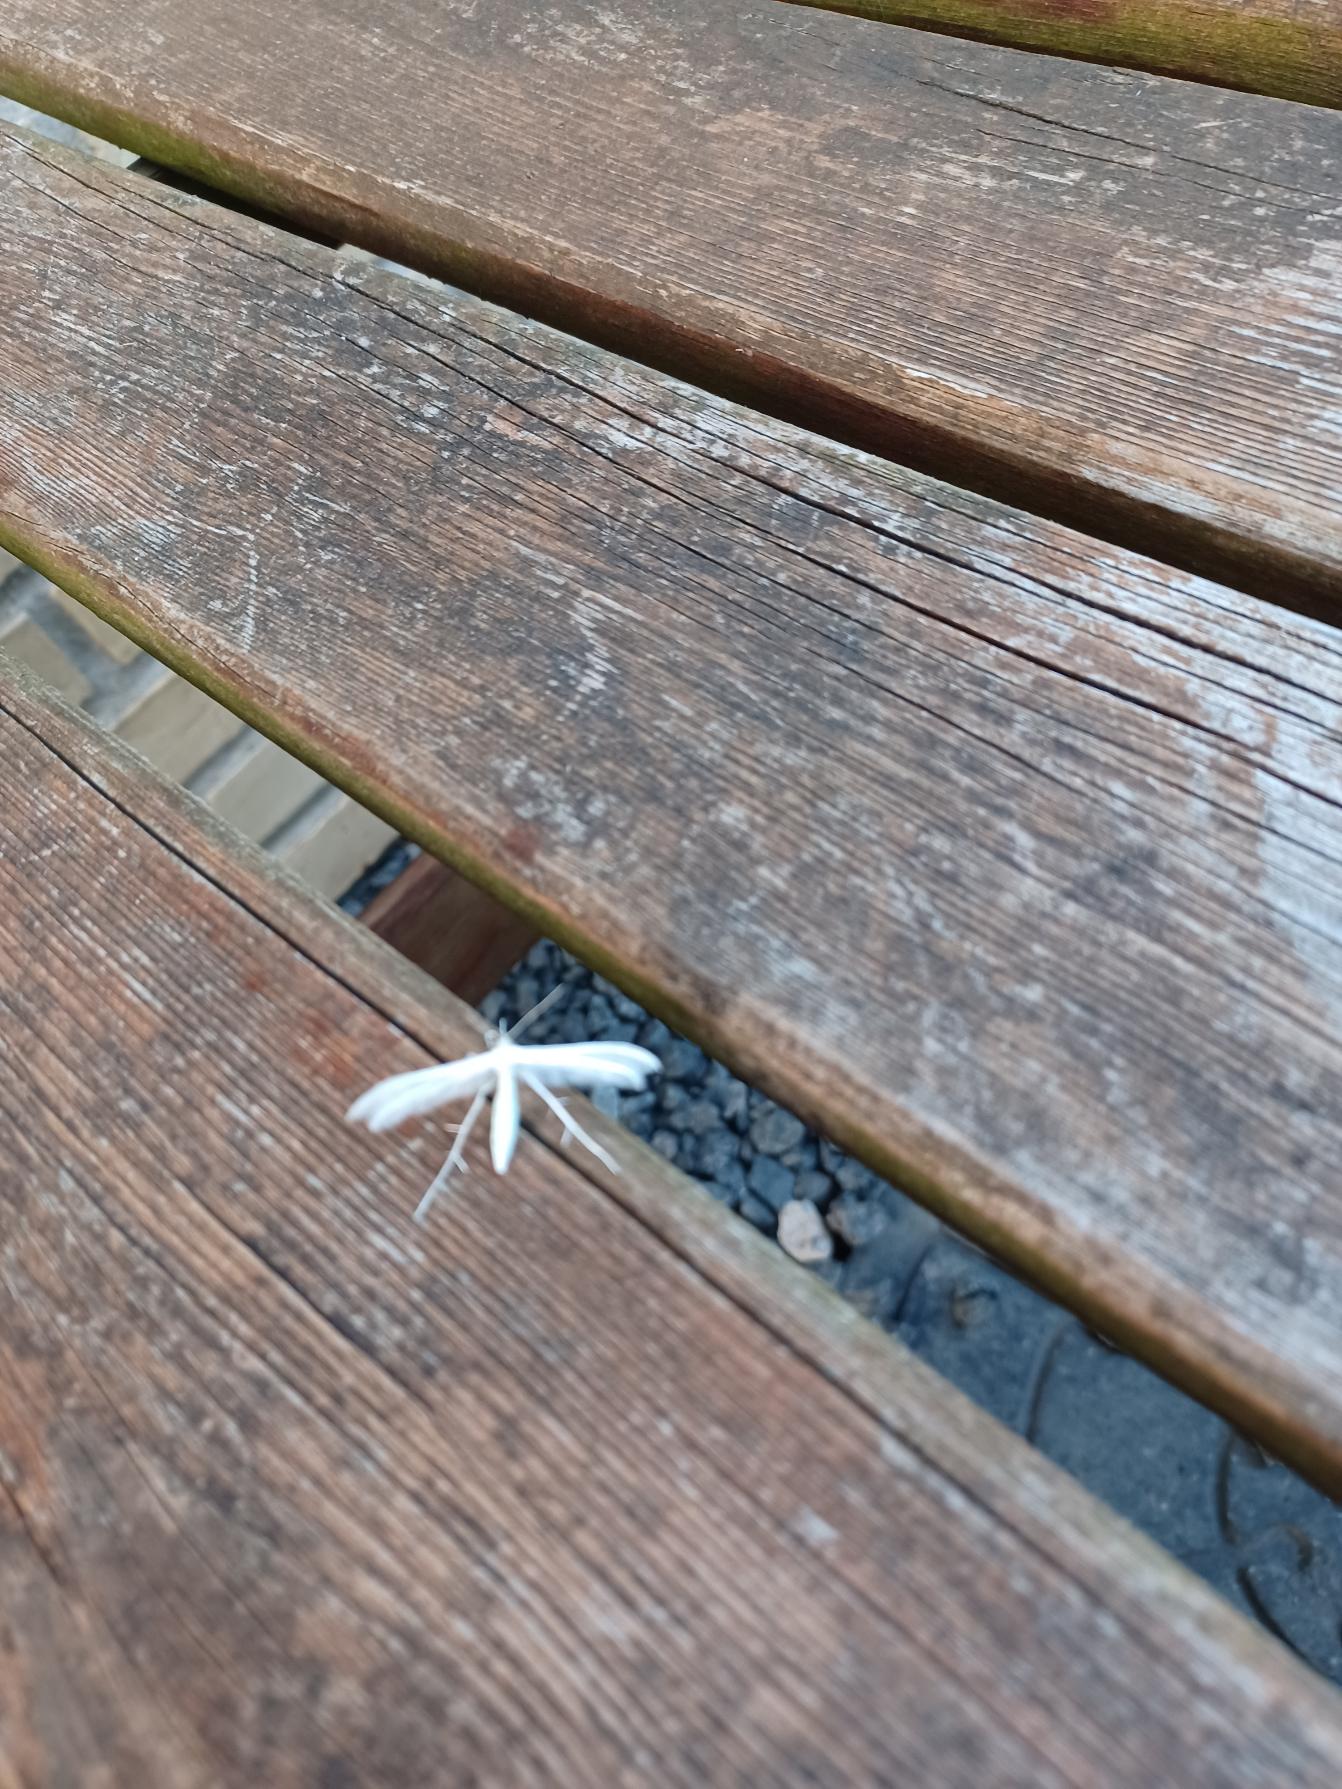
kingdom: Animalia
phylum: Arthropoda
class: Insecta
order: Lepidoptera
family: Pterophoridae
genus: Pterophorus
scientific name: Pterophorus pentadactyla
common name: Hvidt fjermøl
